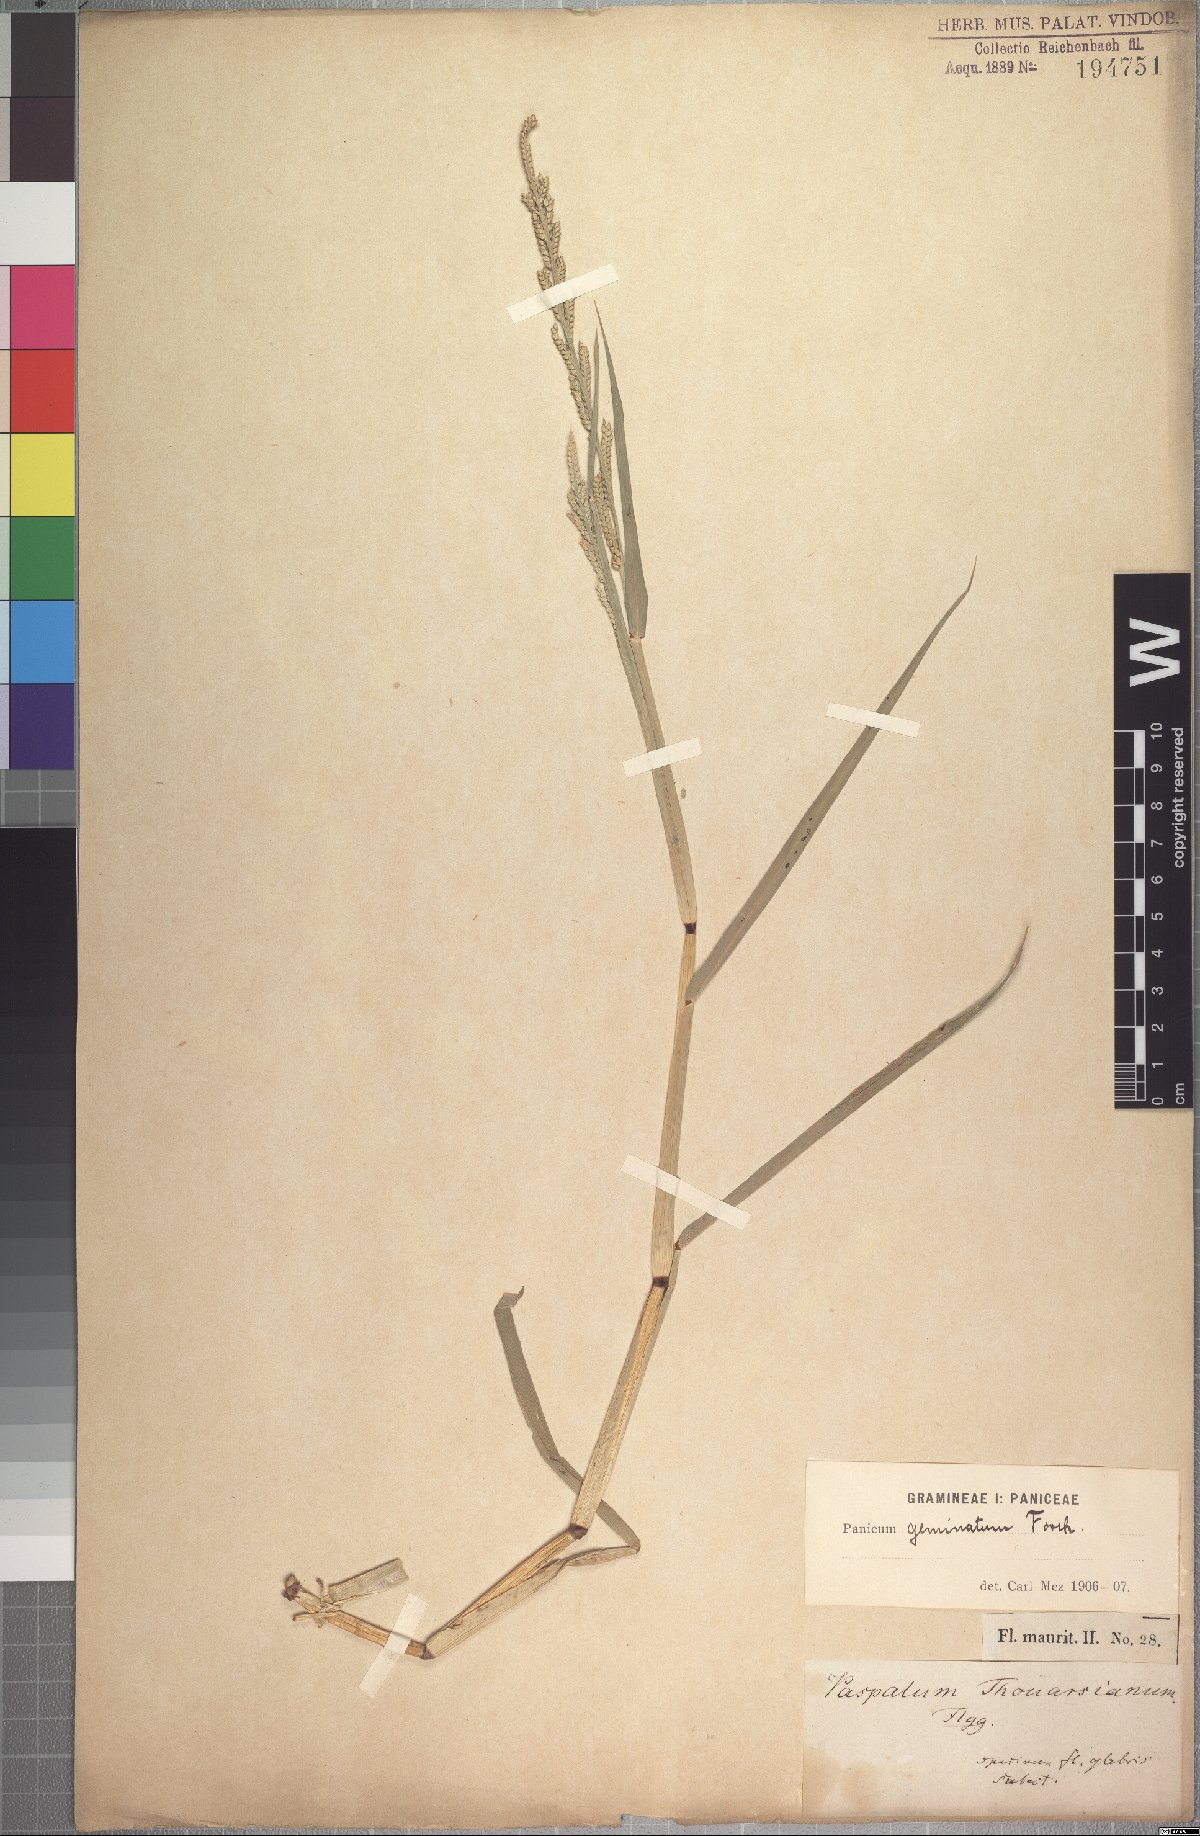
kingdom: Plantae
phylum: Tracheophyta
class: Liliopsida
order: Poales
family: Poaceae
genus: Setaria
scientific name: Setaria geminata
